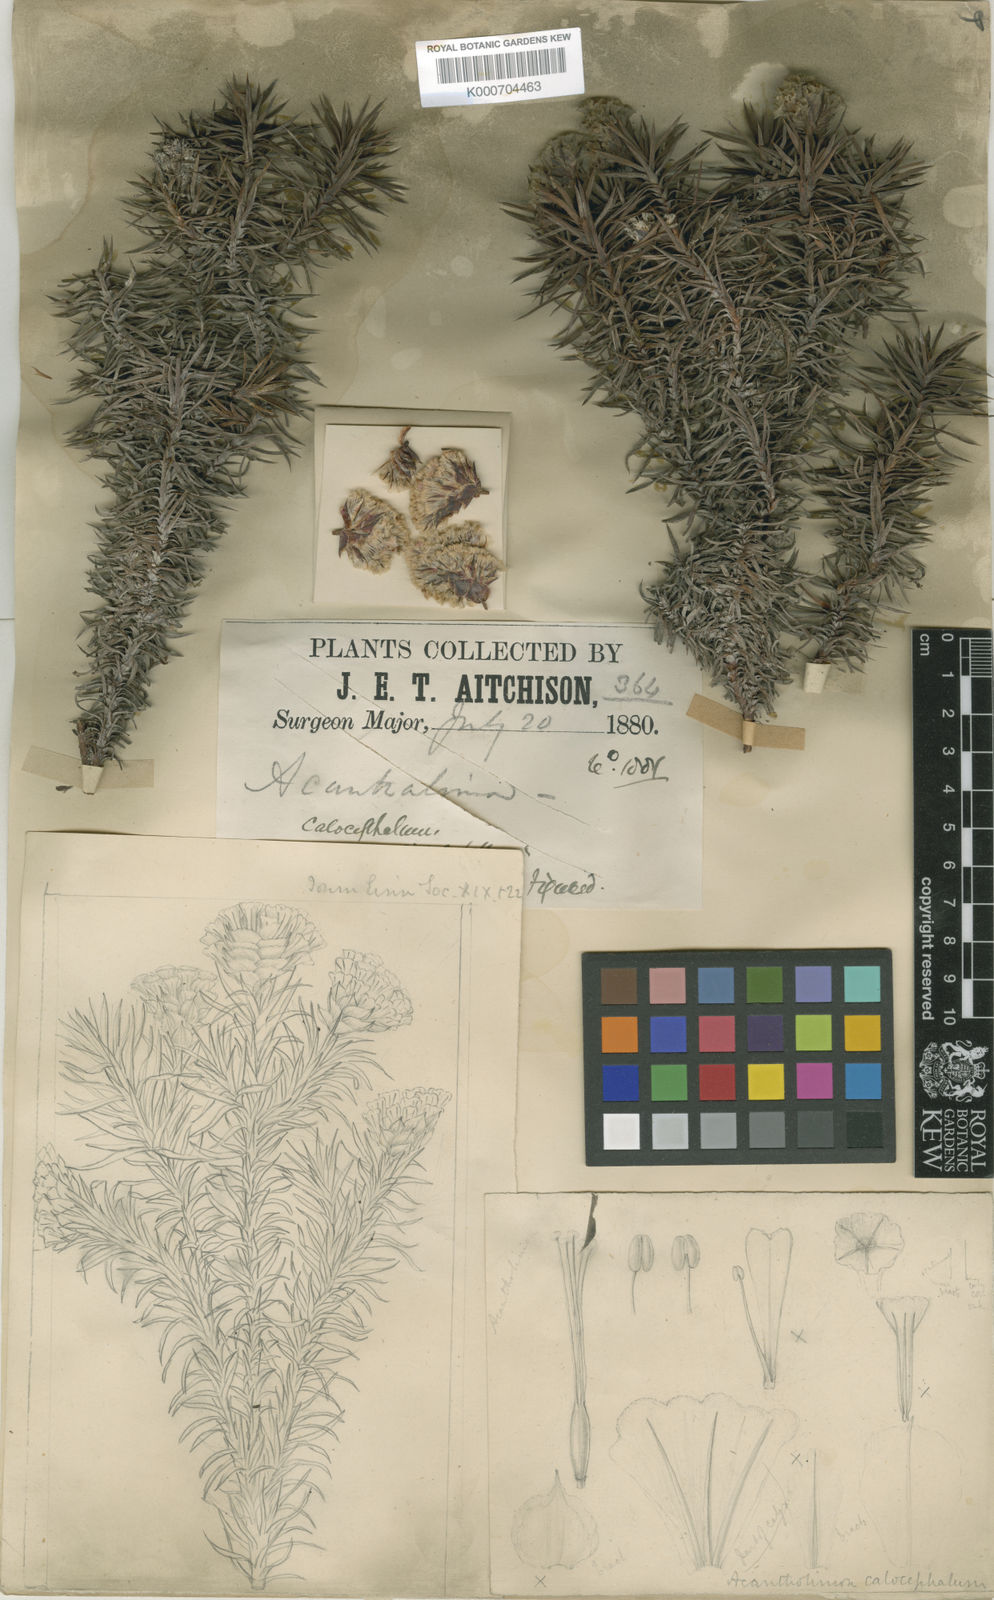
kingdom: Plantae
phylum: Tracheophyta
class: Magnoliopsida
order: Caryophyllales
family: Plumbaginaceae
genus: Acantholimon
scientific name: Acantholimon calocephalum
